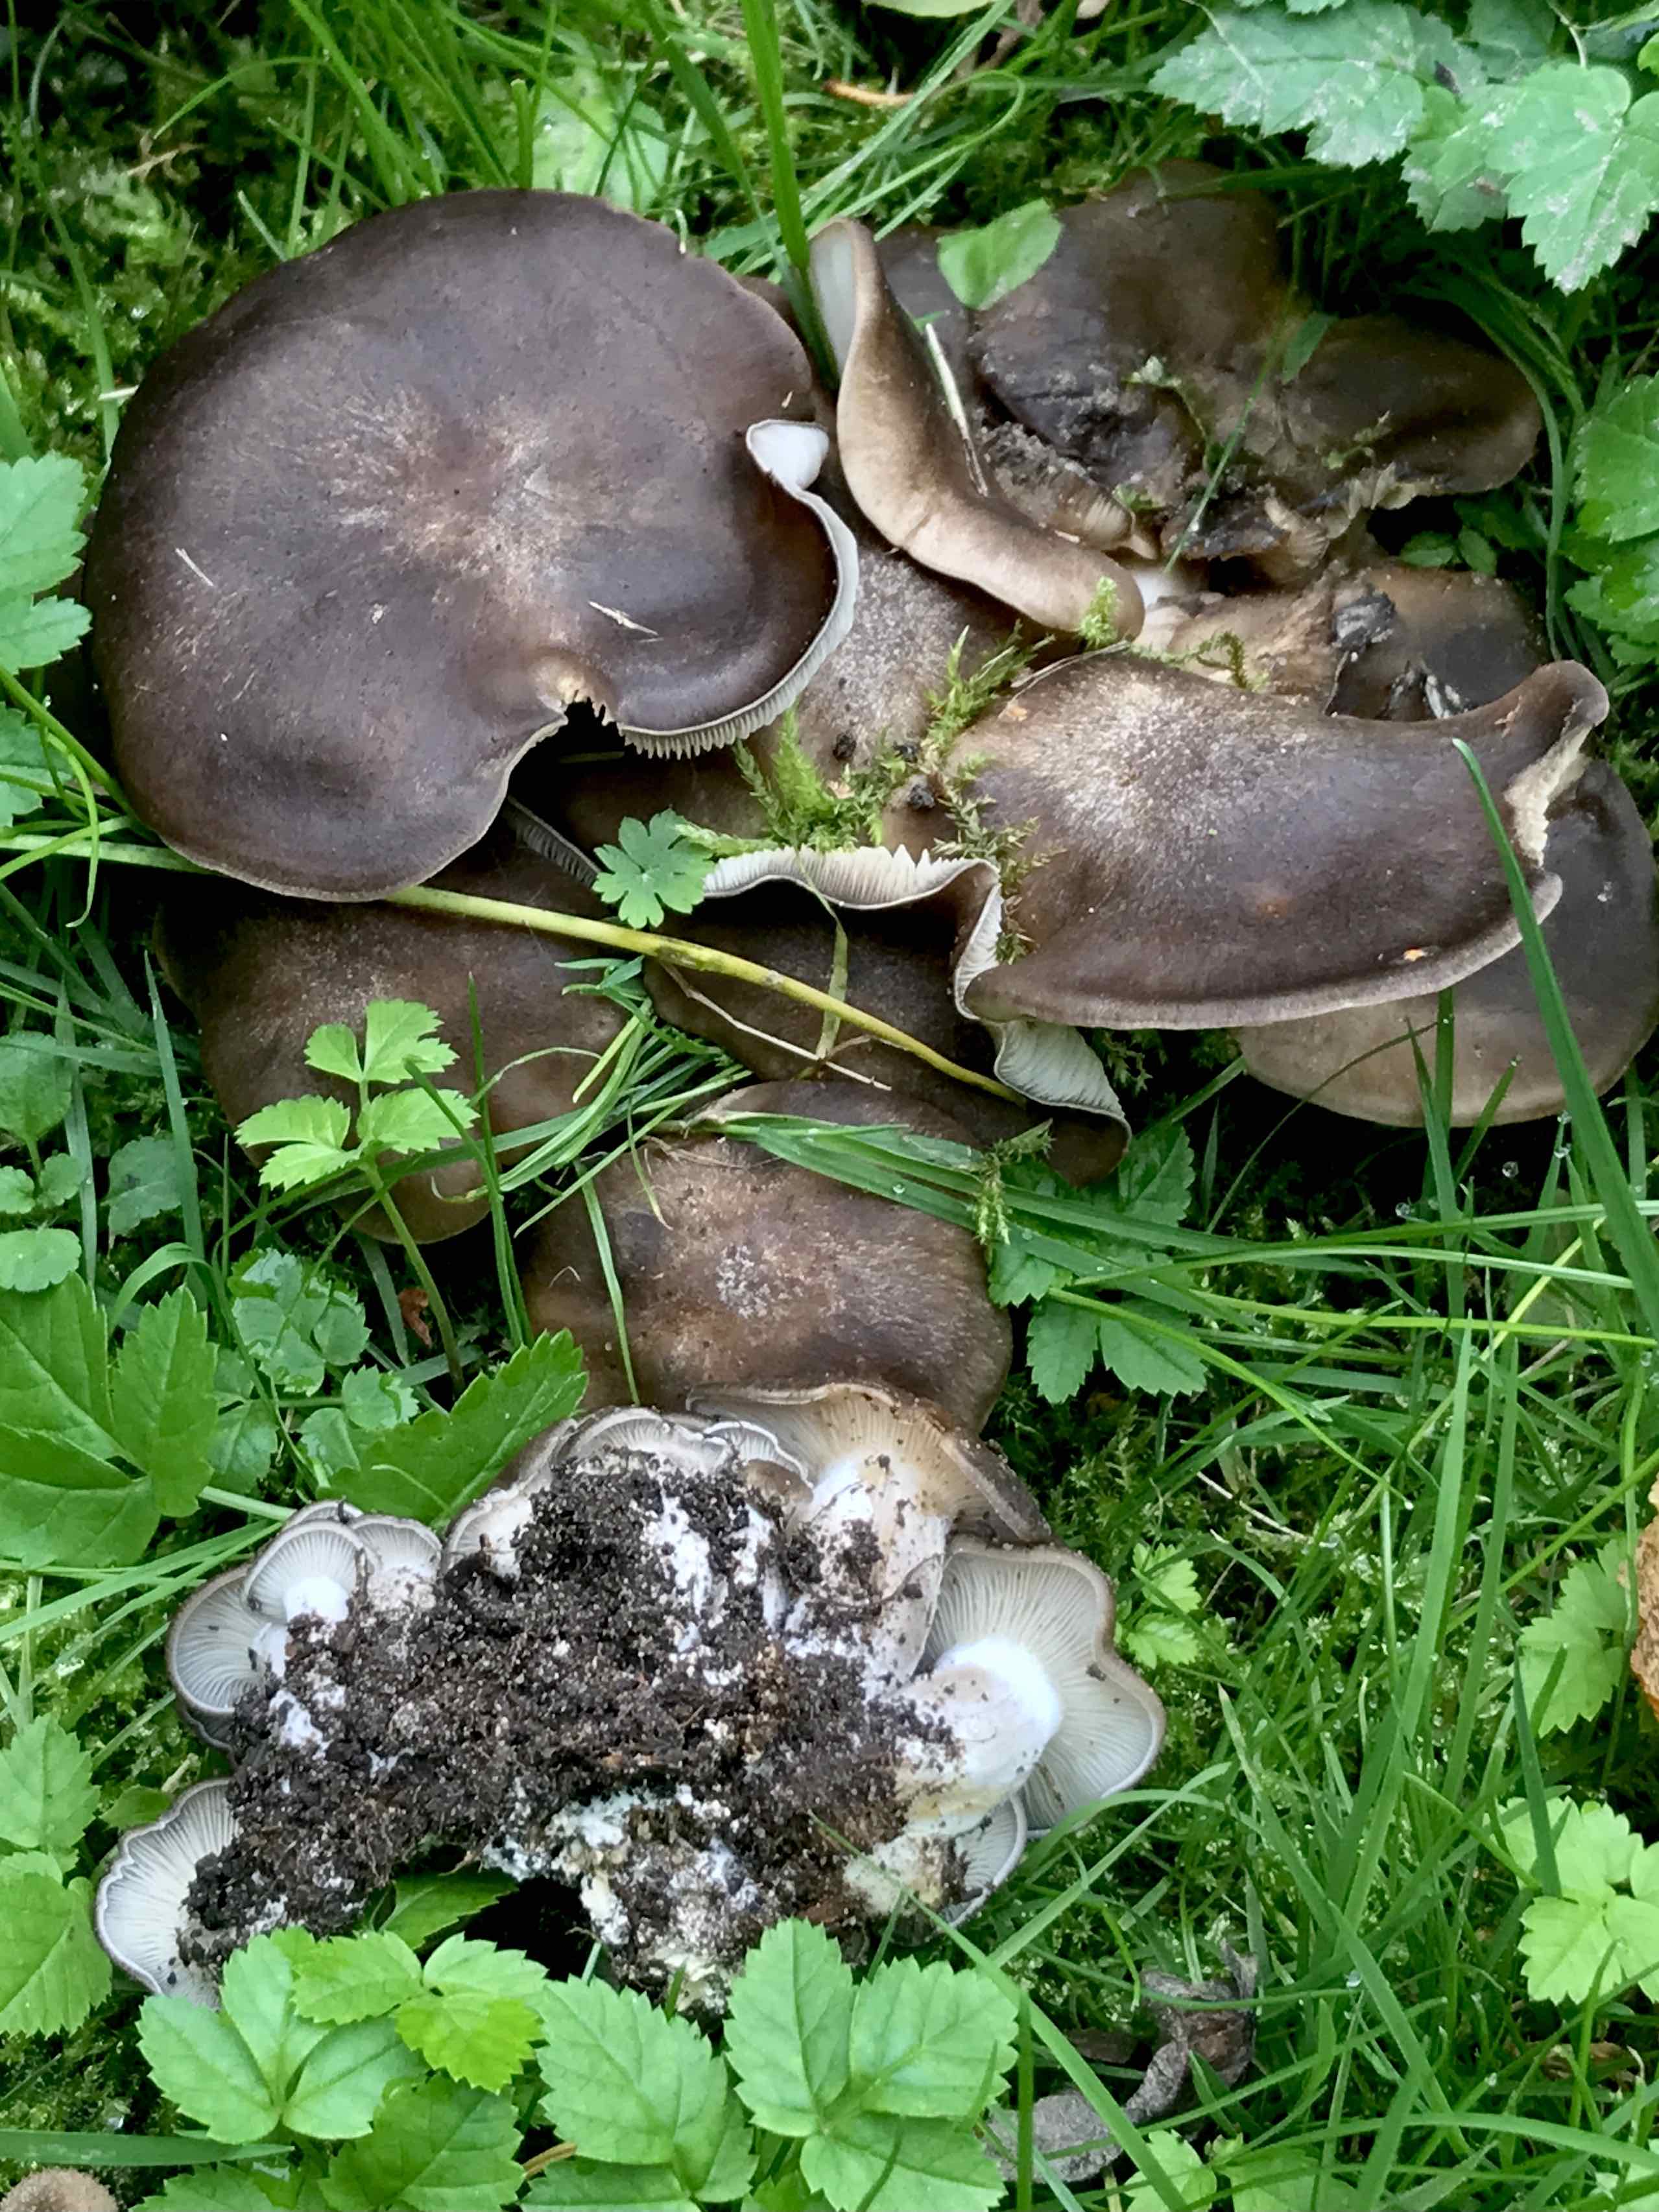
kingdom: Fungi
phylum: Basidiomycota
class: Agaricomycetes
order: Agaricales
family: Lyophyllaceae
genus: Lyophyllum
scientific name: Lyophyllum decastes
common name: røggrå gråblad
